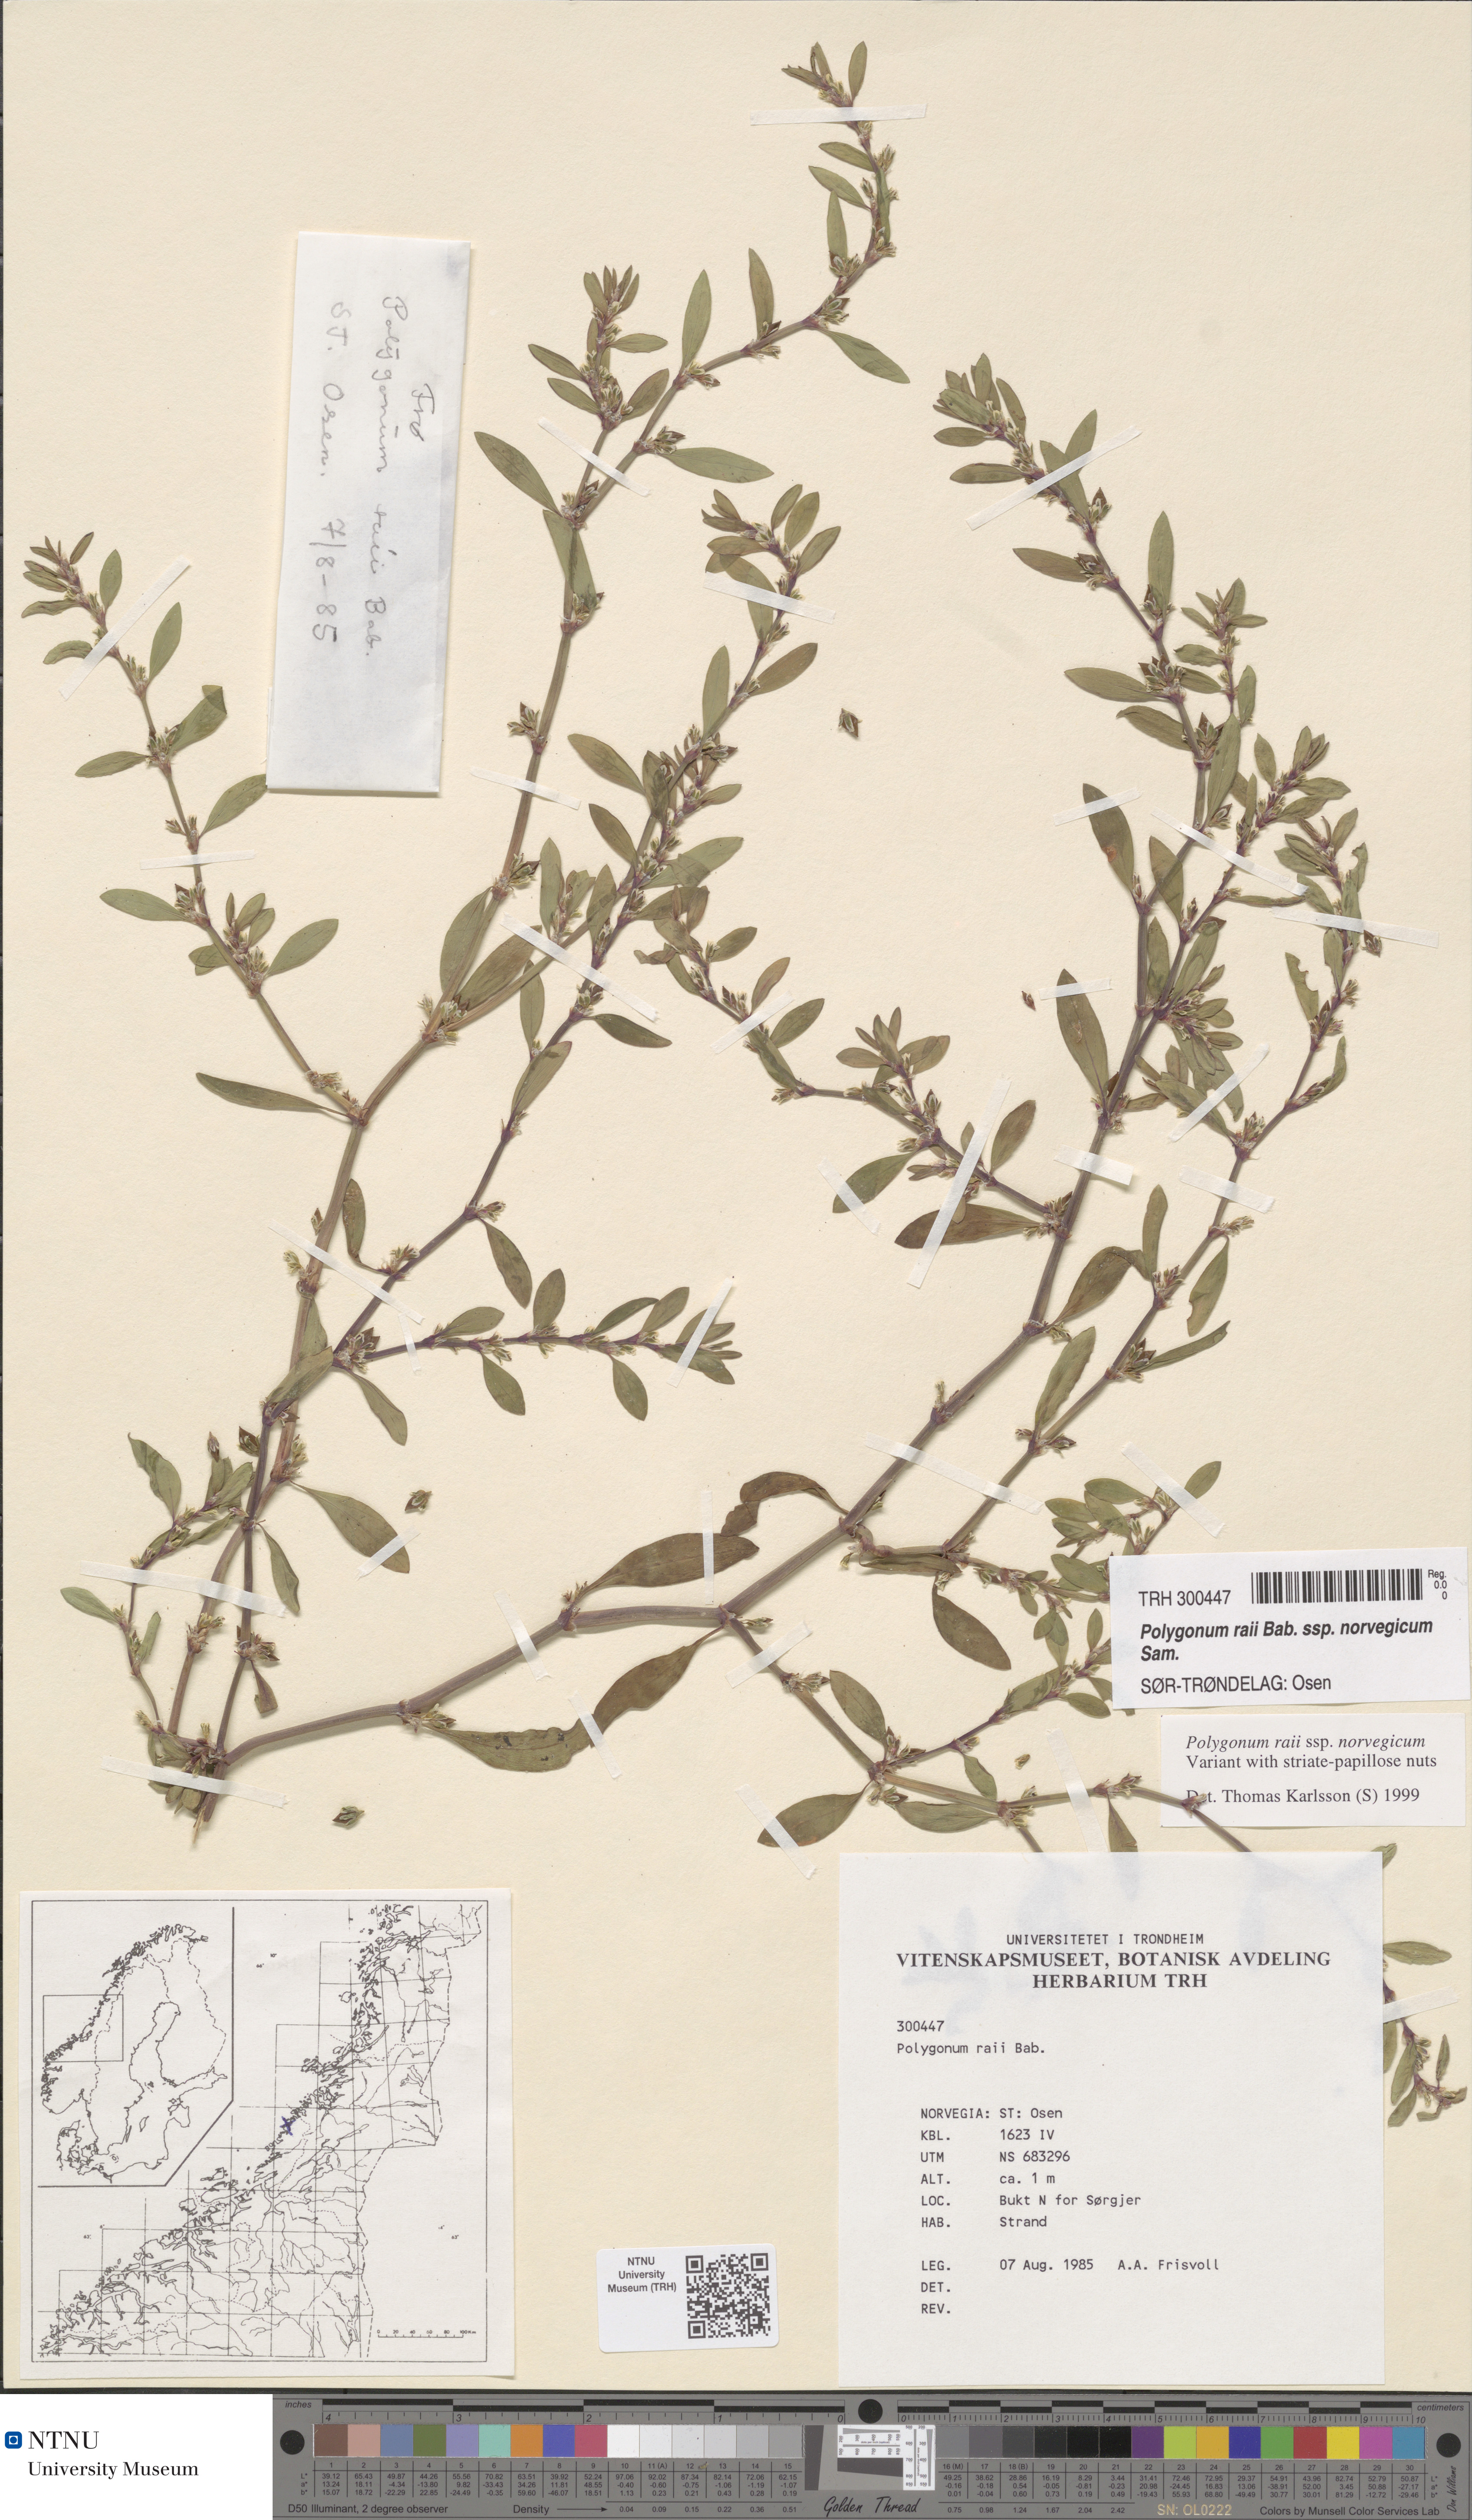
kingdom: Plantae
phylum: Tracheophyta
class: Magnoliopsida
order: Caryophyllales
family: Polygonaceae
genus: Polygonum
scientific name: Polygonum norvegicum
